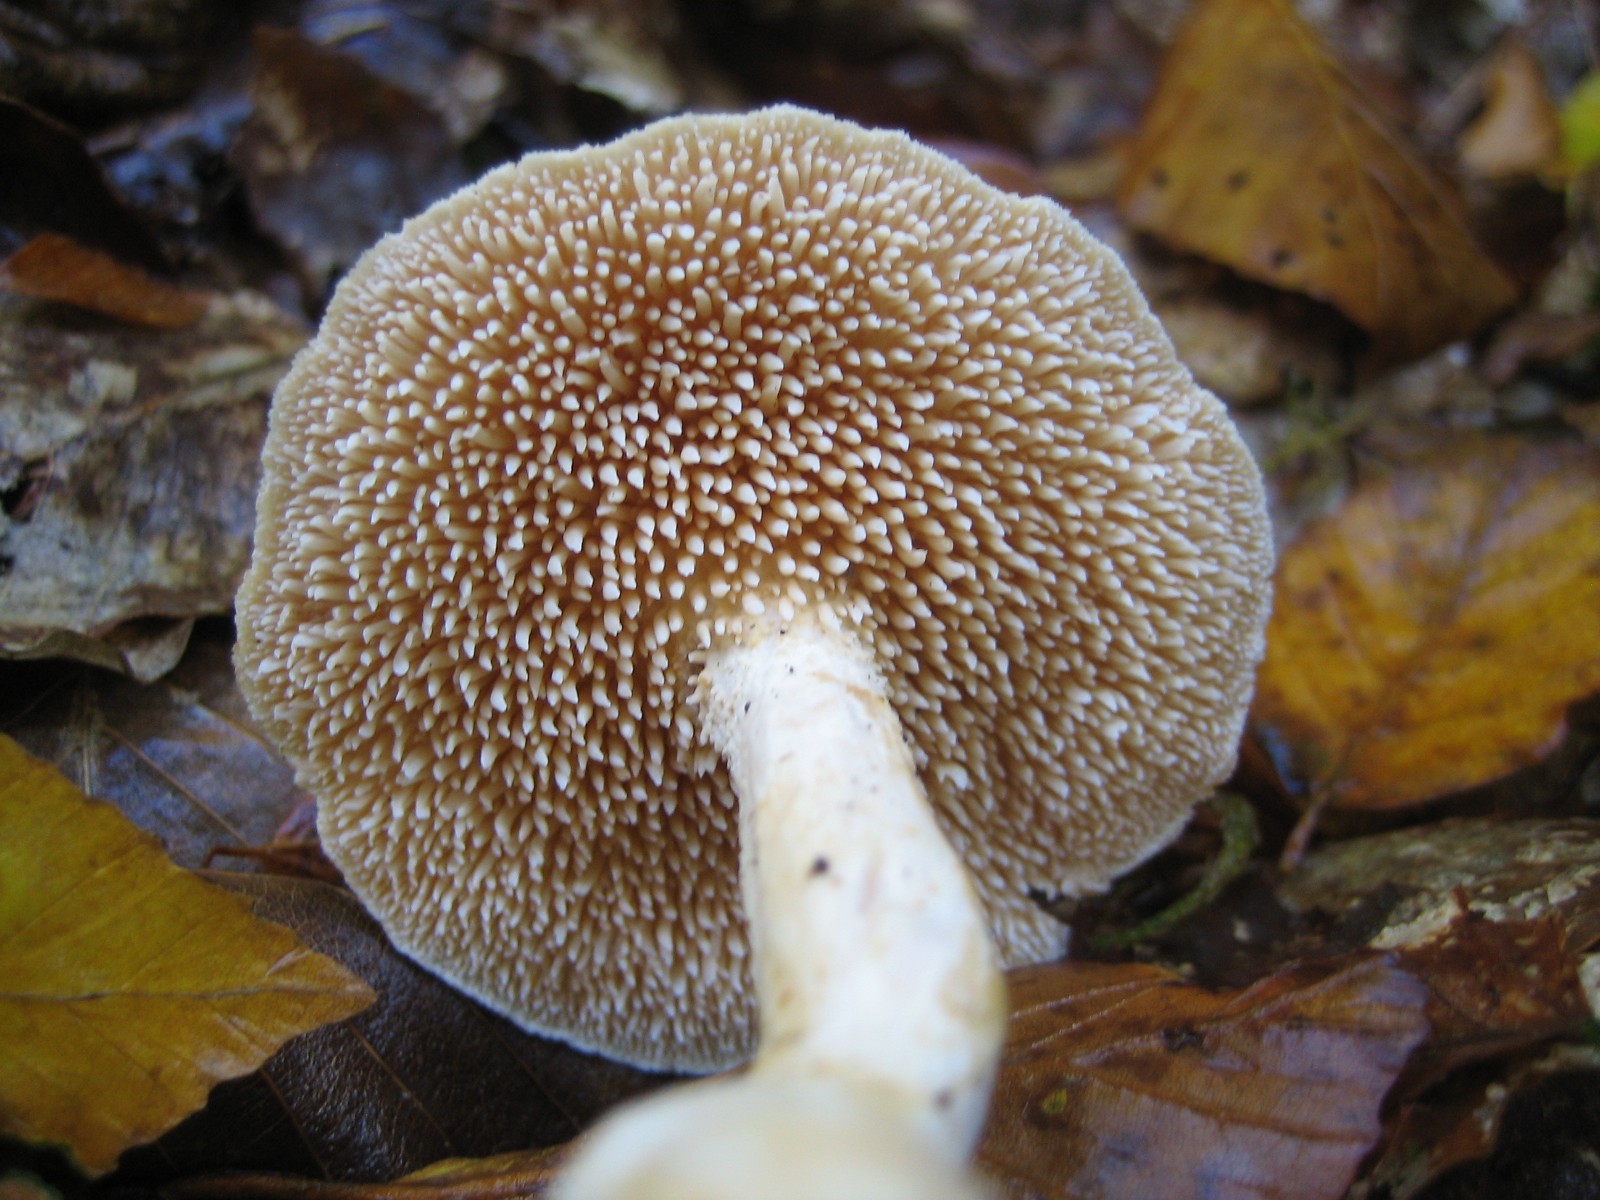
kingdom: Fungi
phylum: Basidiomycota
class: Agaricomycetes
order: Cantharellales
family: Hydnaceae
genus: Hydnum
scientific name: Hydnum umbilicatum
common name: navle-pigsvamp
